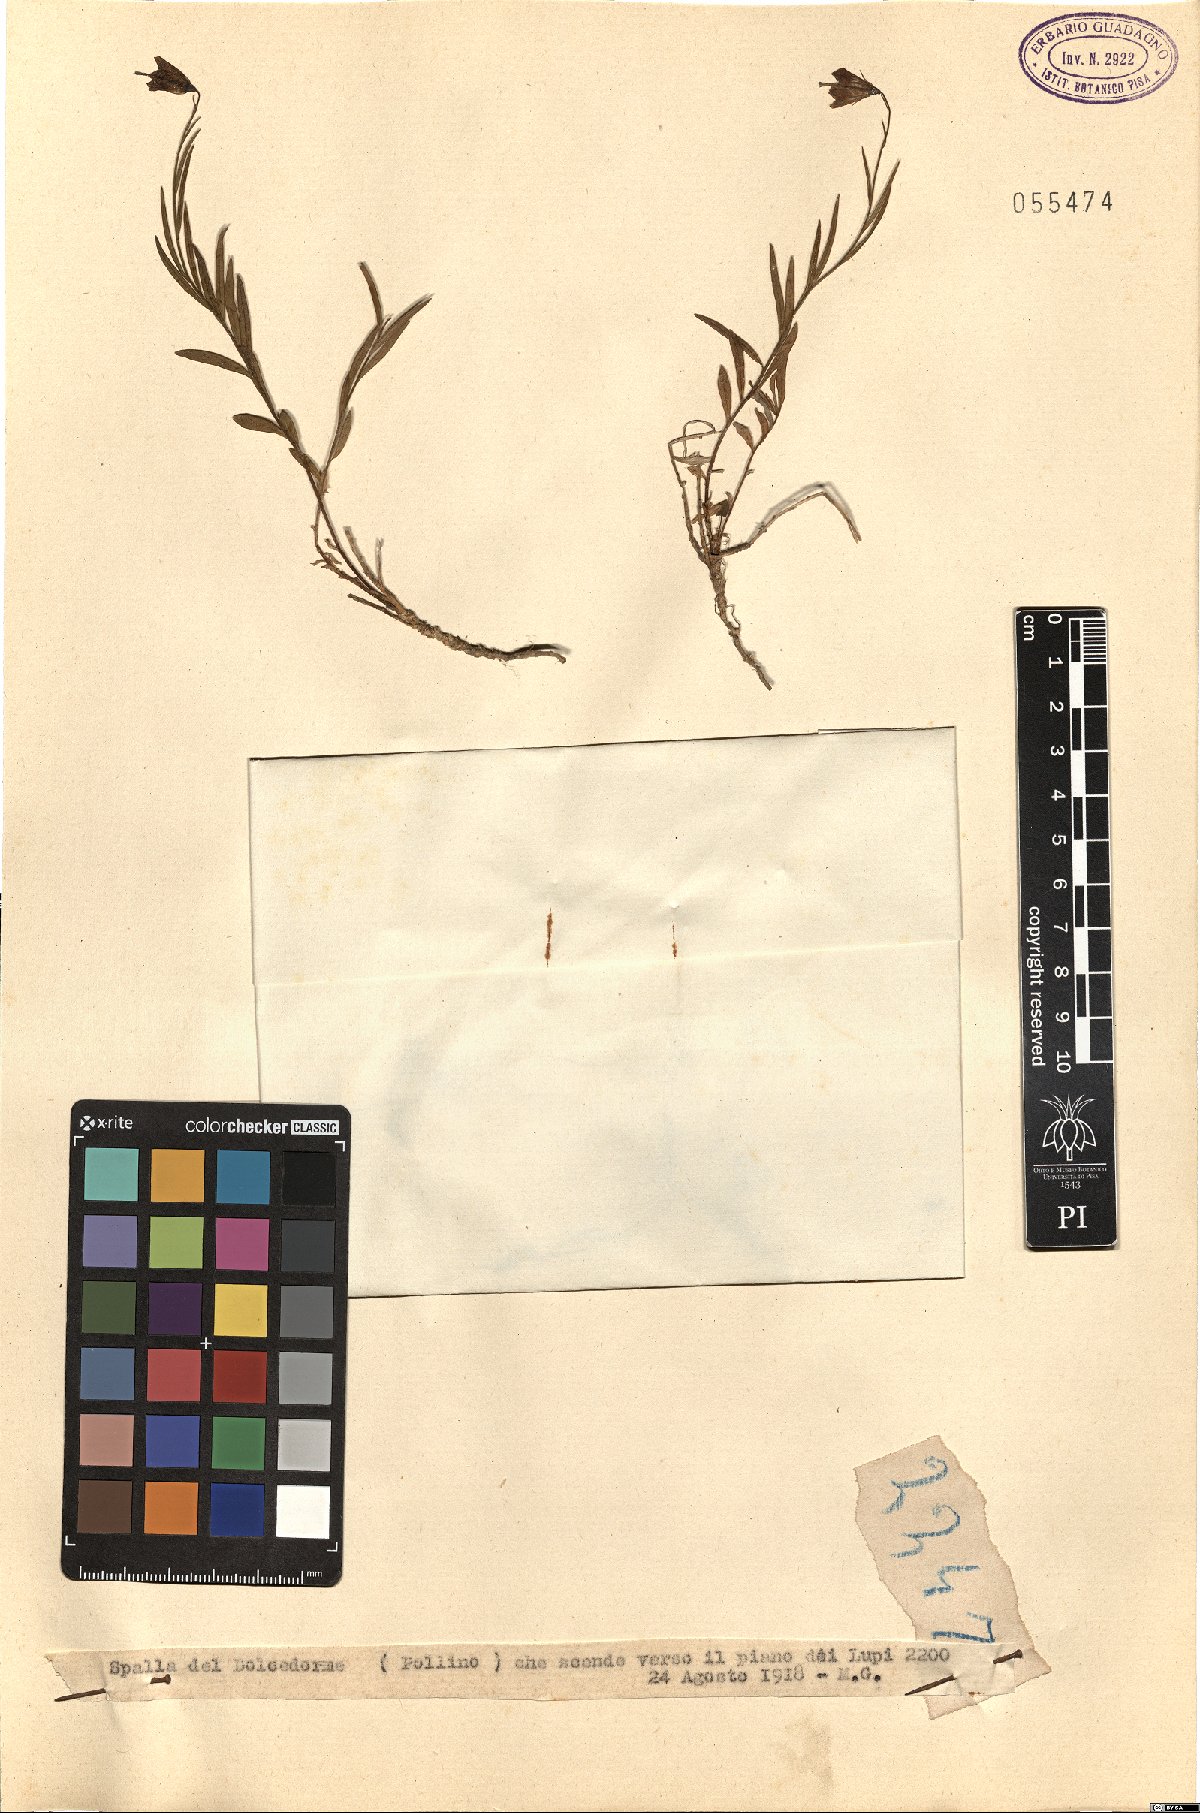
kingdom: Plantae
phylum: Tracheophyta
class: Magnoliopsida
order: Asterales
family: Campanulaceae
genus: Campanula
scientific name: Campanula
